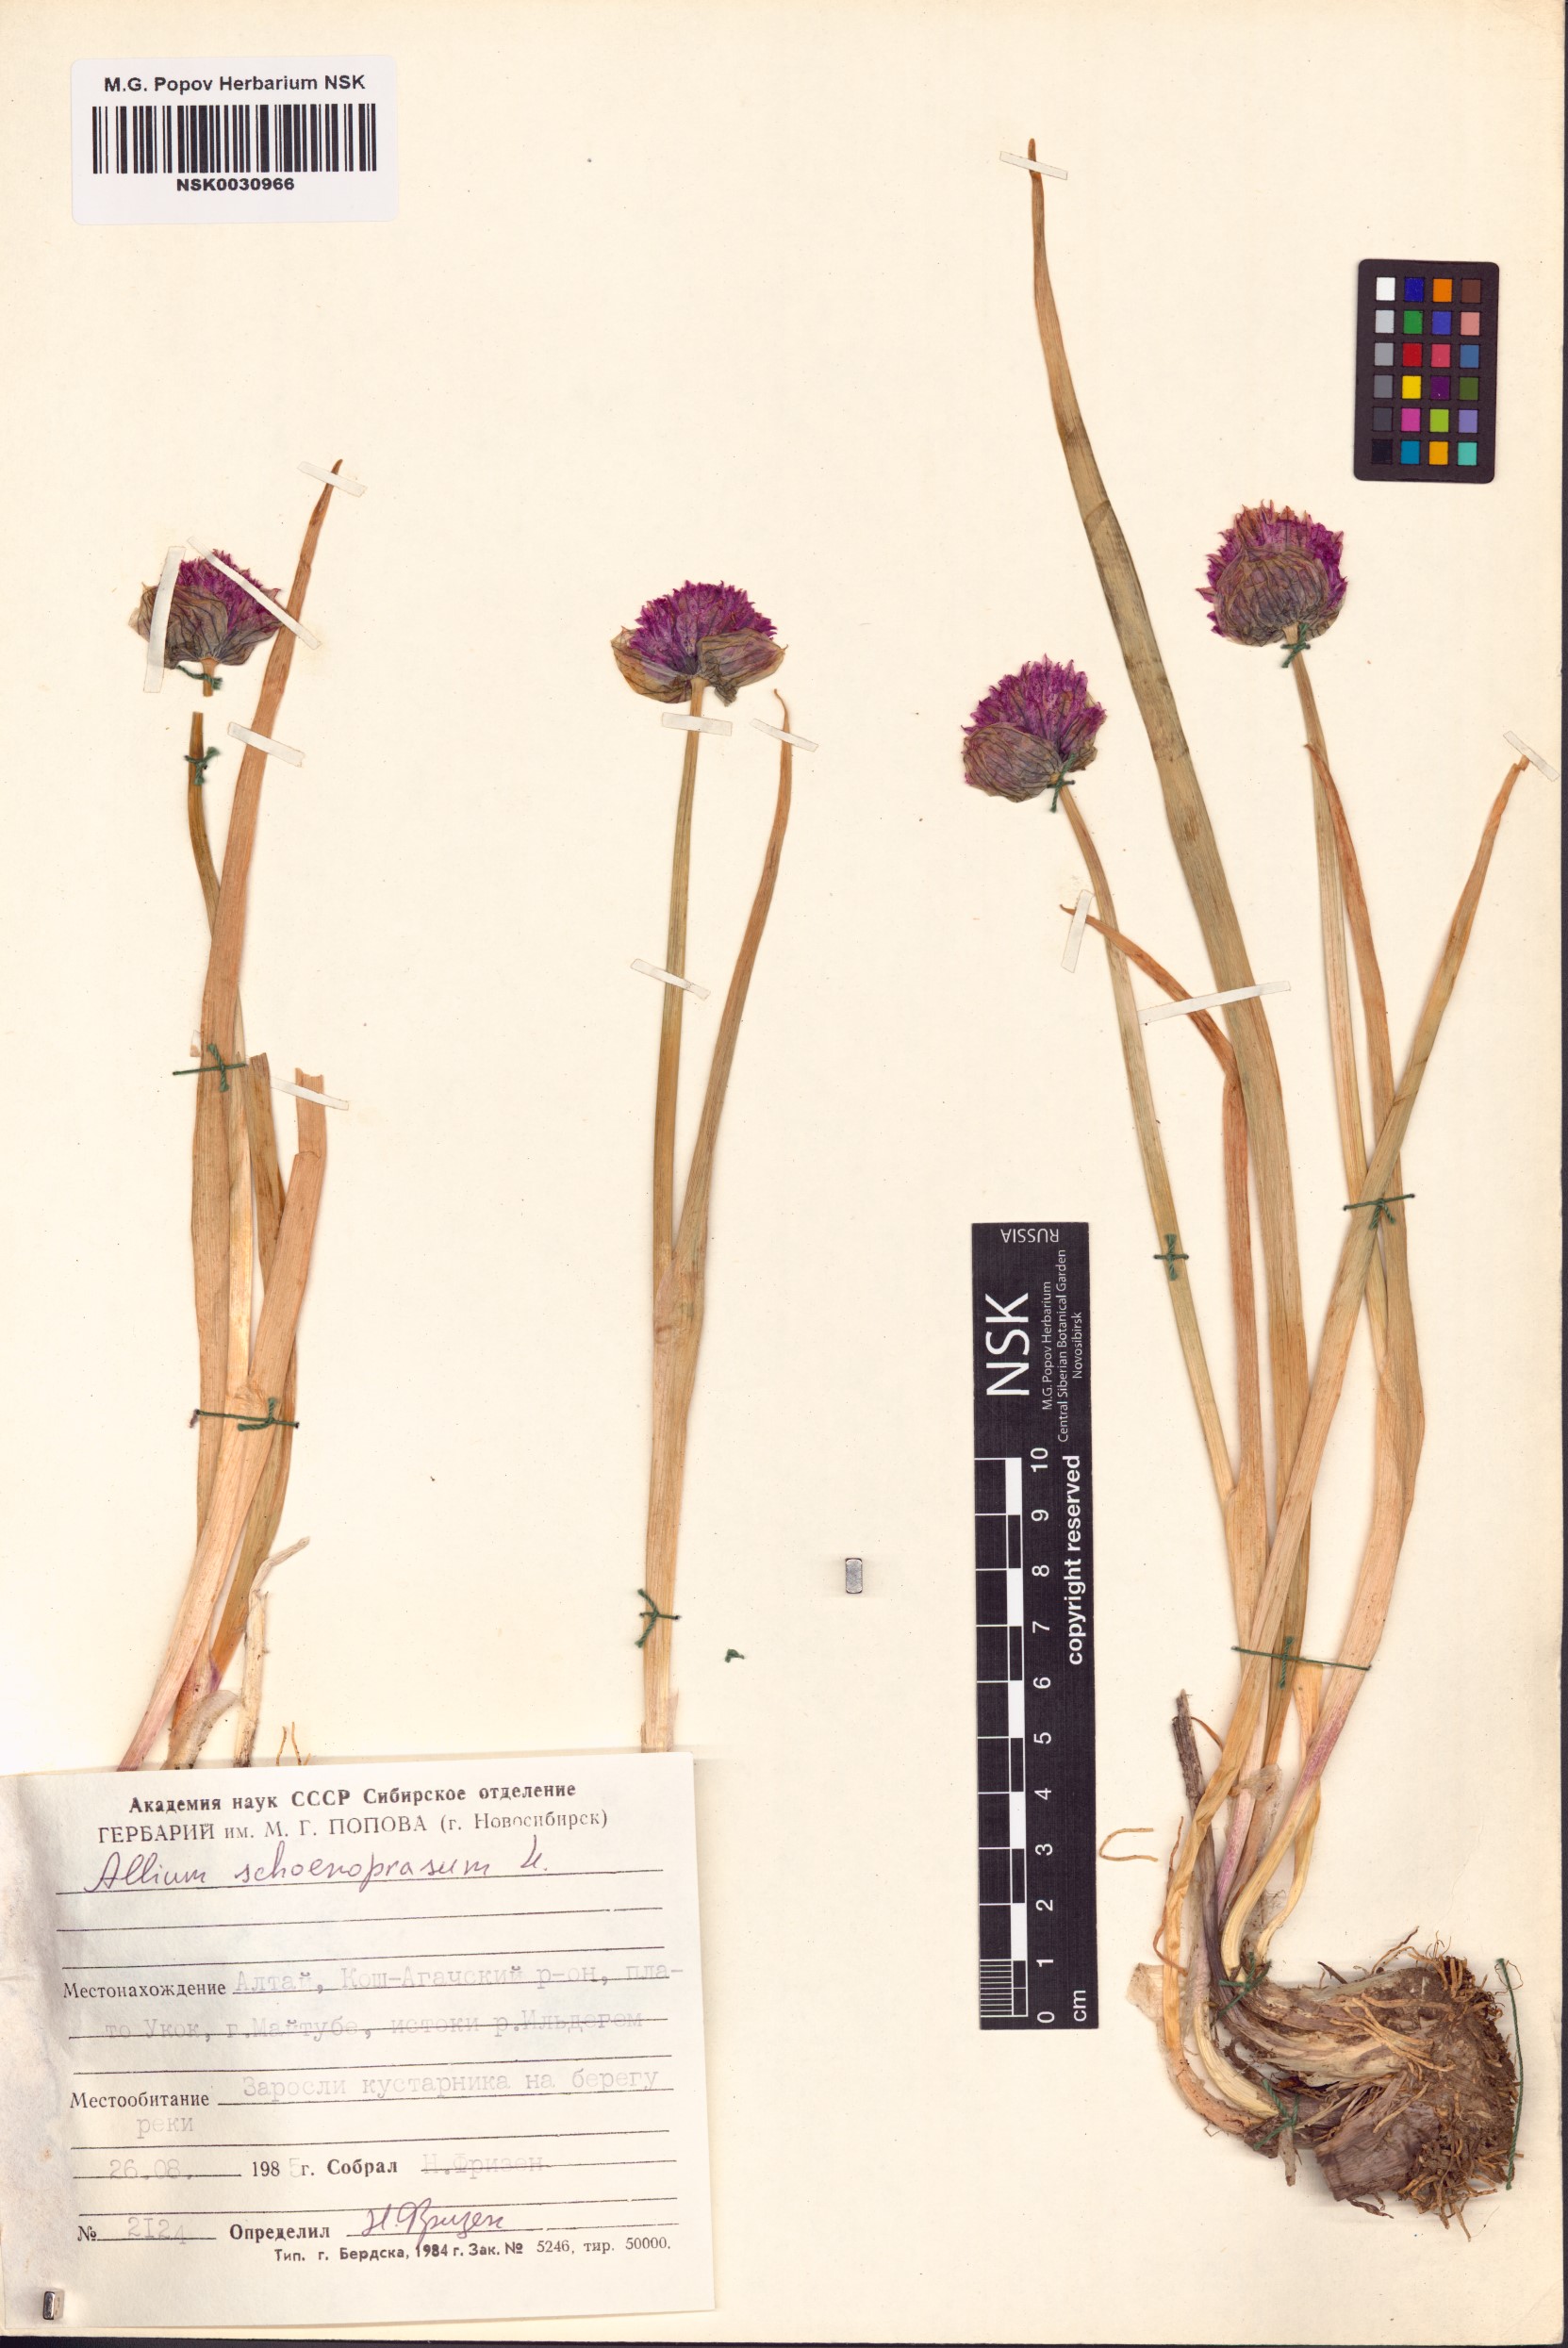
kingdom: Plantae
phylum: Tracheophyta
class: Liliopsida
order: Asparagales
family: Amaryllidaceae
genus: Allium
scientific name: Allium schoenoprasum
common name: Chives
